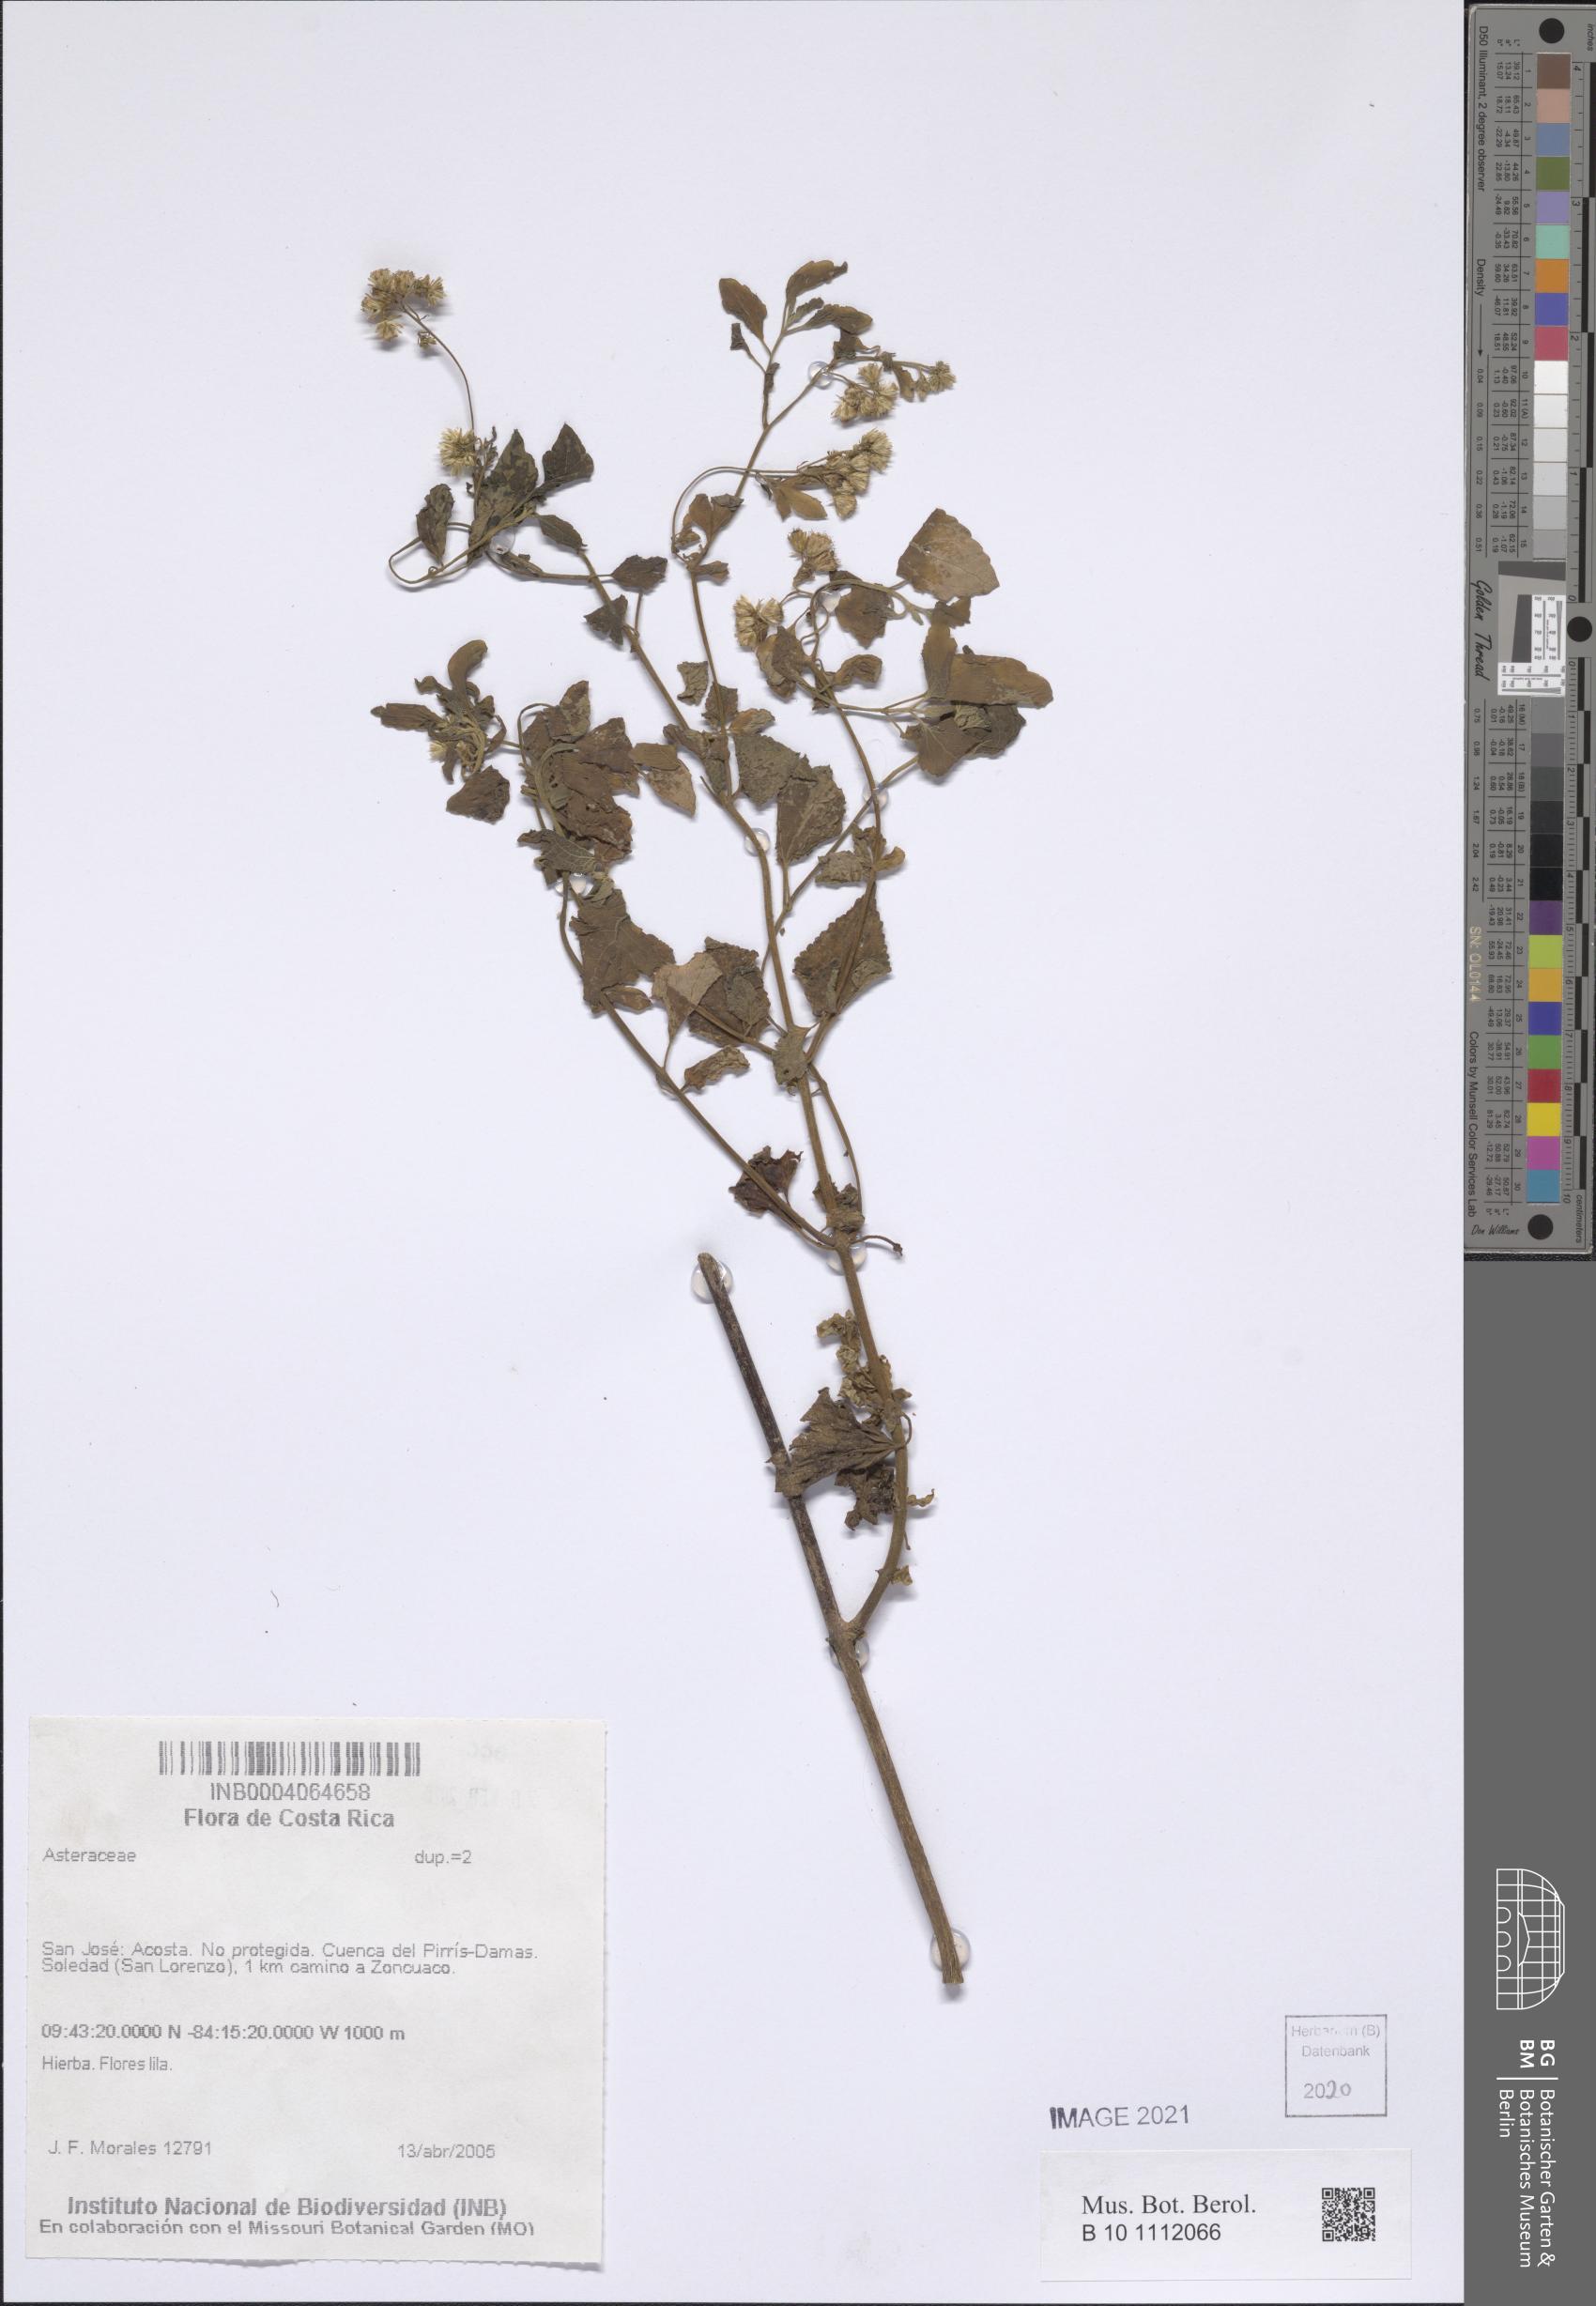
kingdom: Plantae
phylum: Tracheophyta
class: Magnoliopsida
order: Asterales
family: Asteraceae
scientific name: Asteraceae
